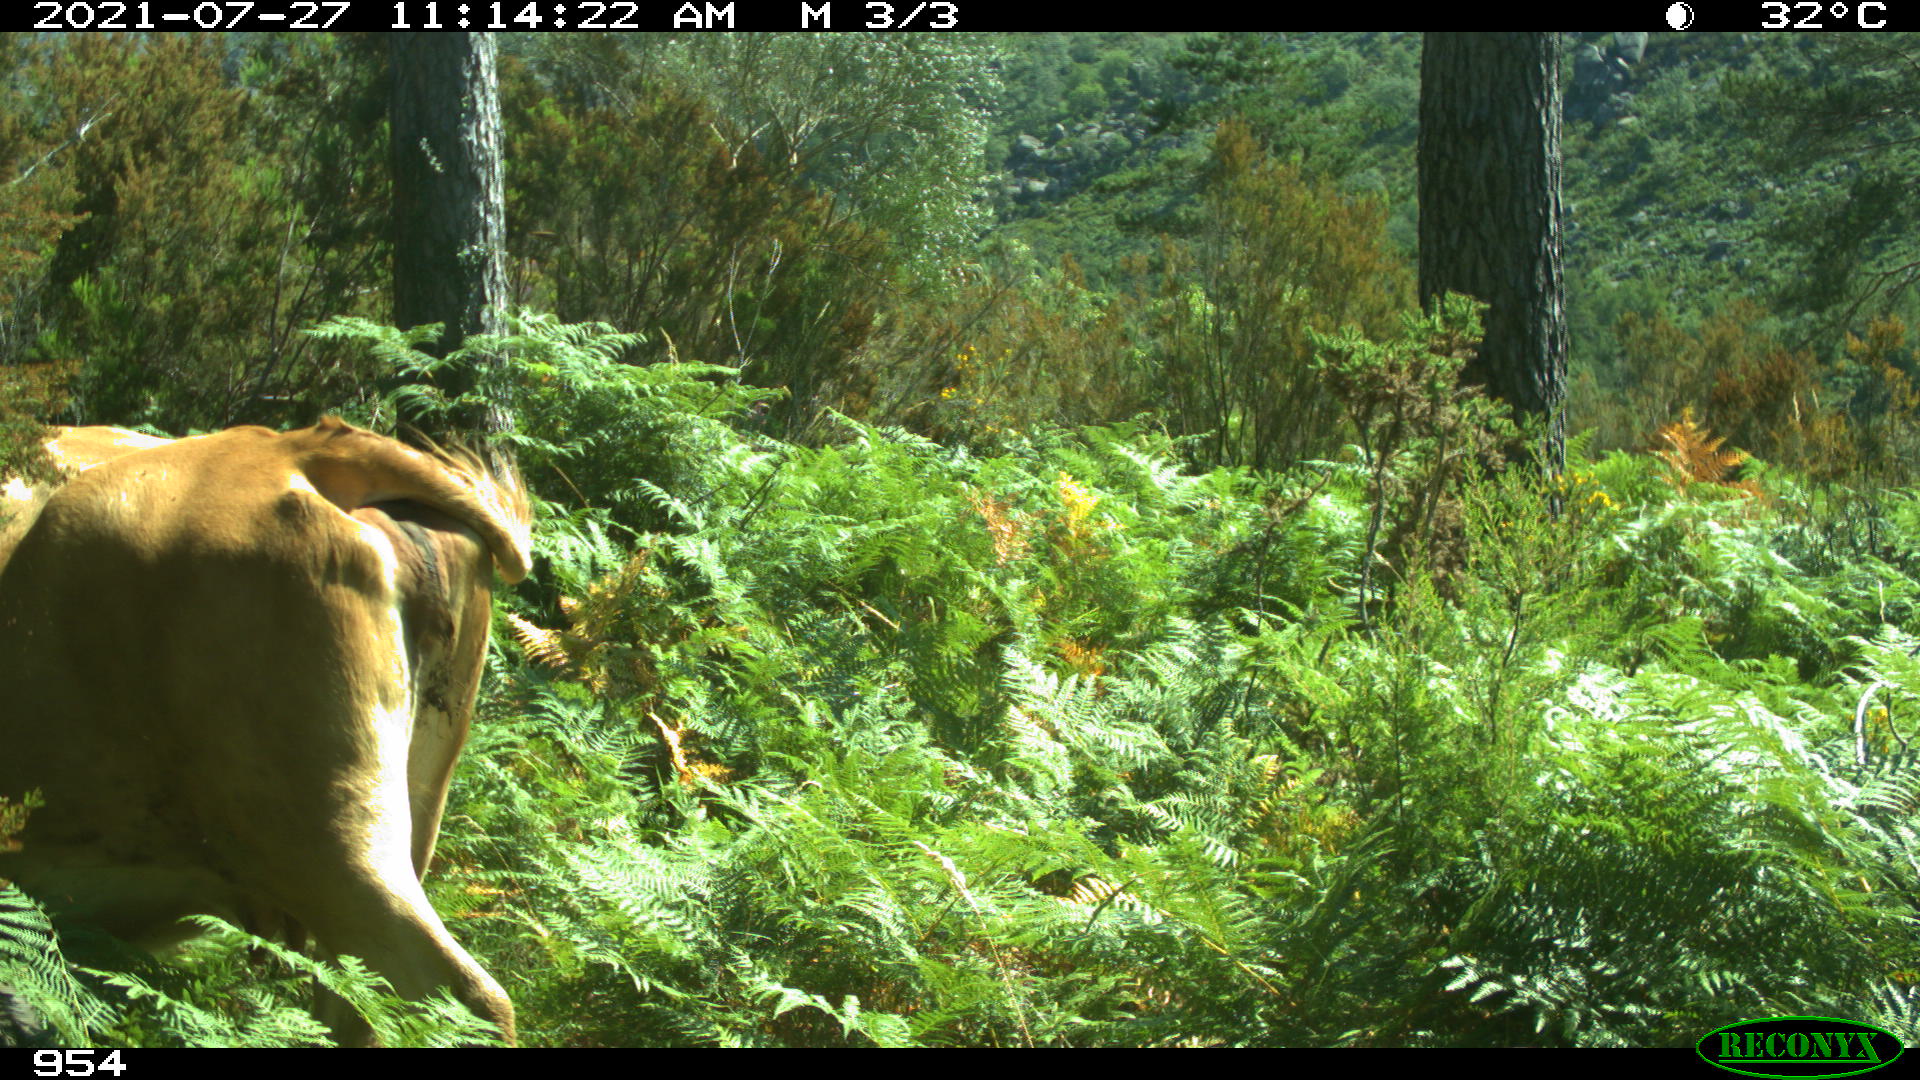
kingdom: Animalia
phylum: Chordata
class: Mammalia
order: Artiodactyla
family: Bovidae
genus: Bos
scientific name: Bos taurus
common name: Domesticated cattle
